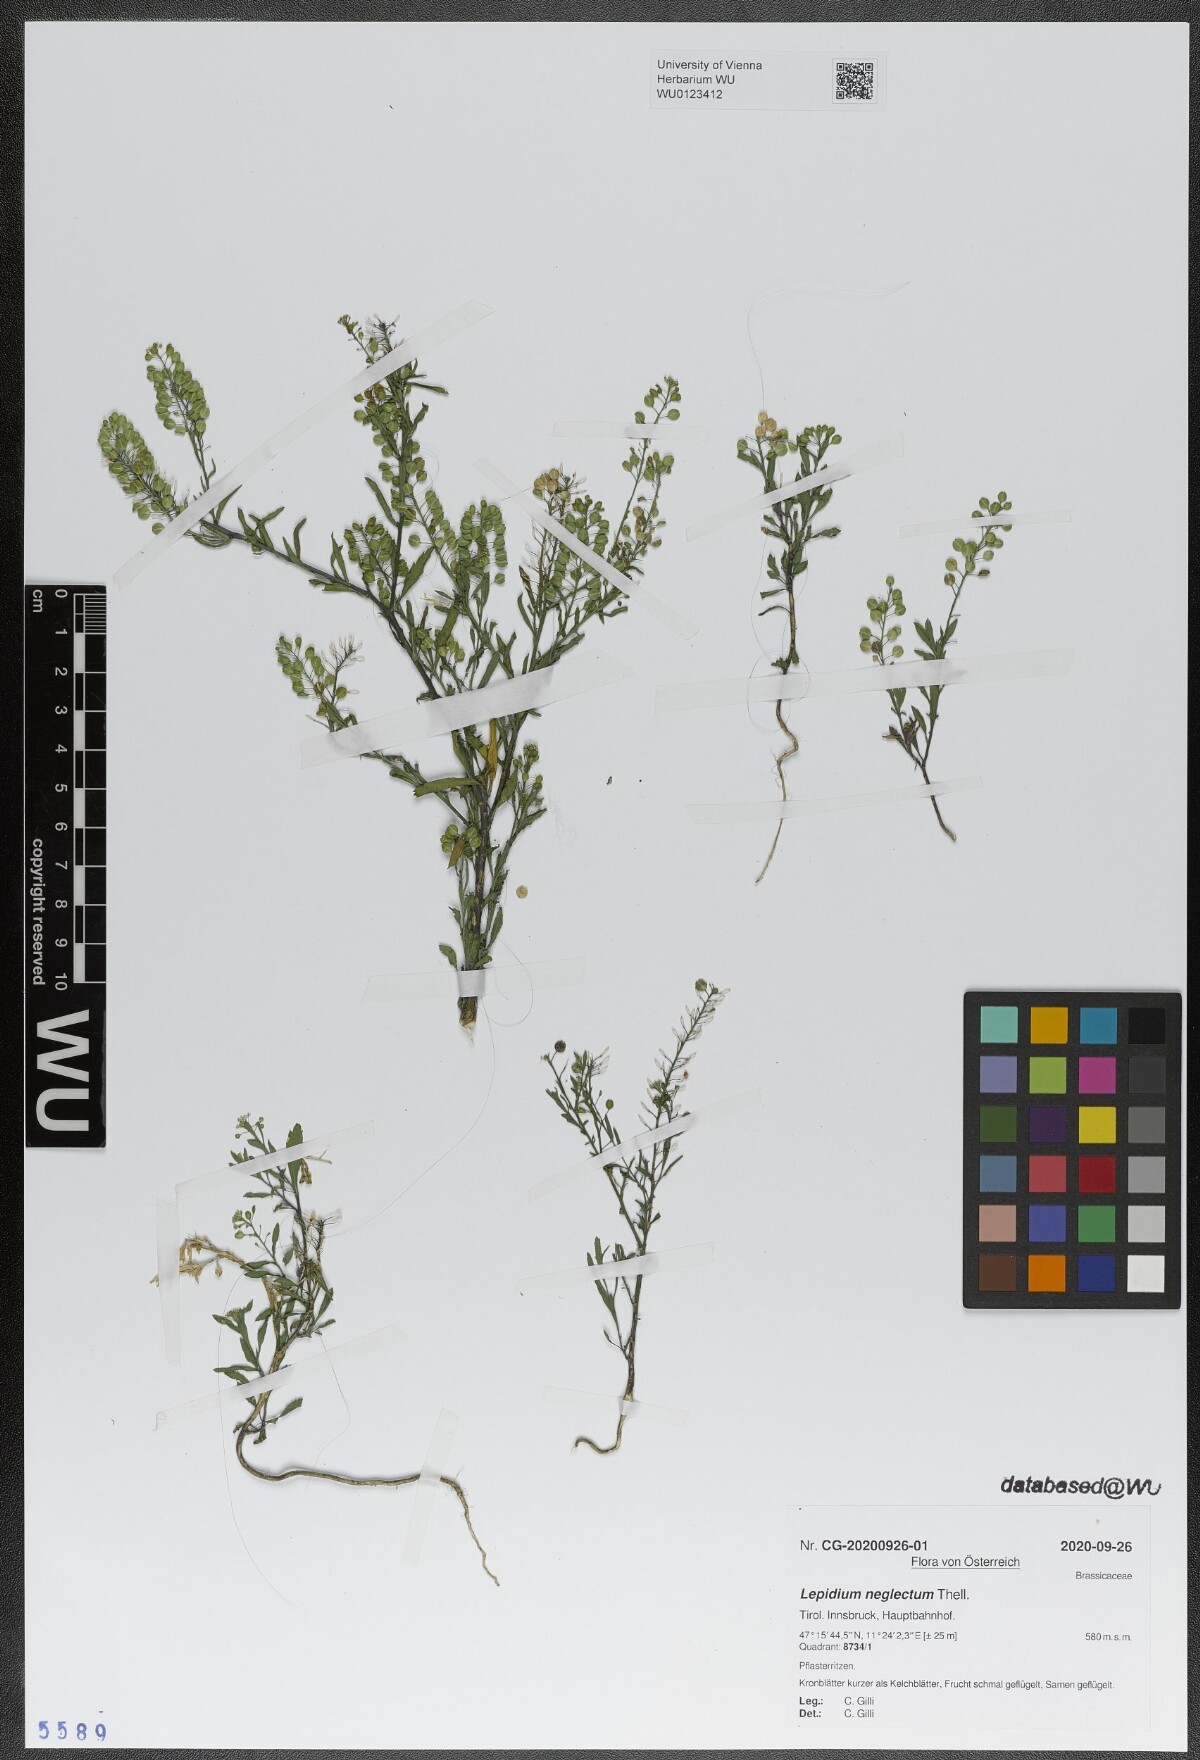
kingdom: Plantae
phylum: Tracheophyta
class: Magnoliopsida
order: Brassicales
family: Brassicaceae
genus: Lepidium
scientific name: Lepidium densiflorum
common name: Miner's pepperwort
